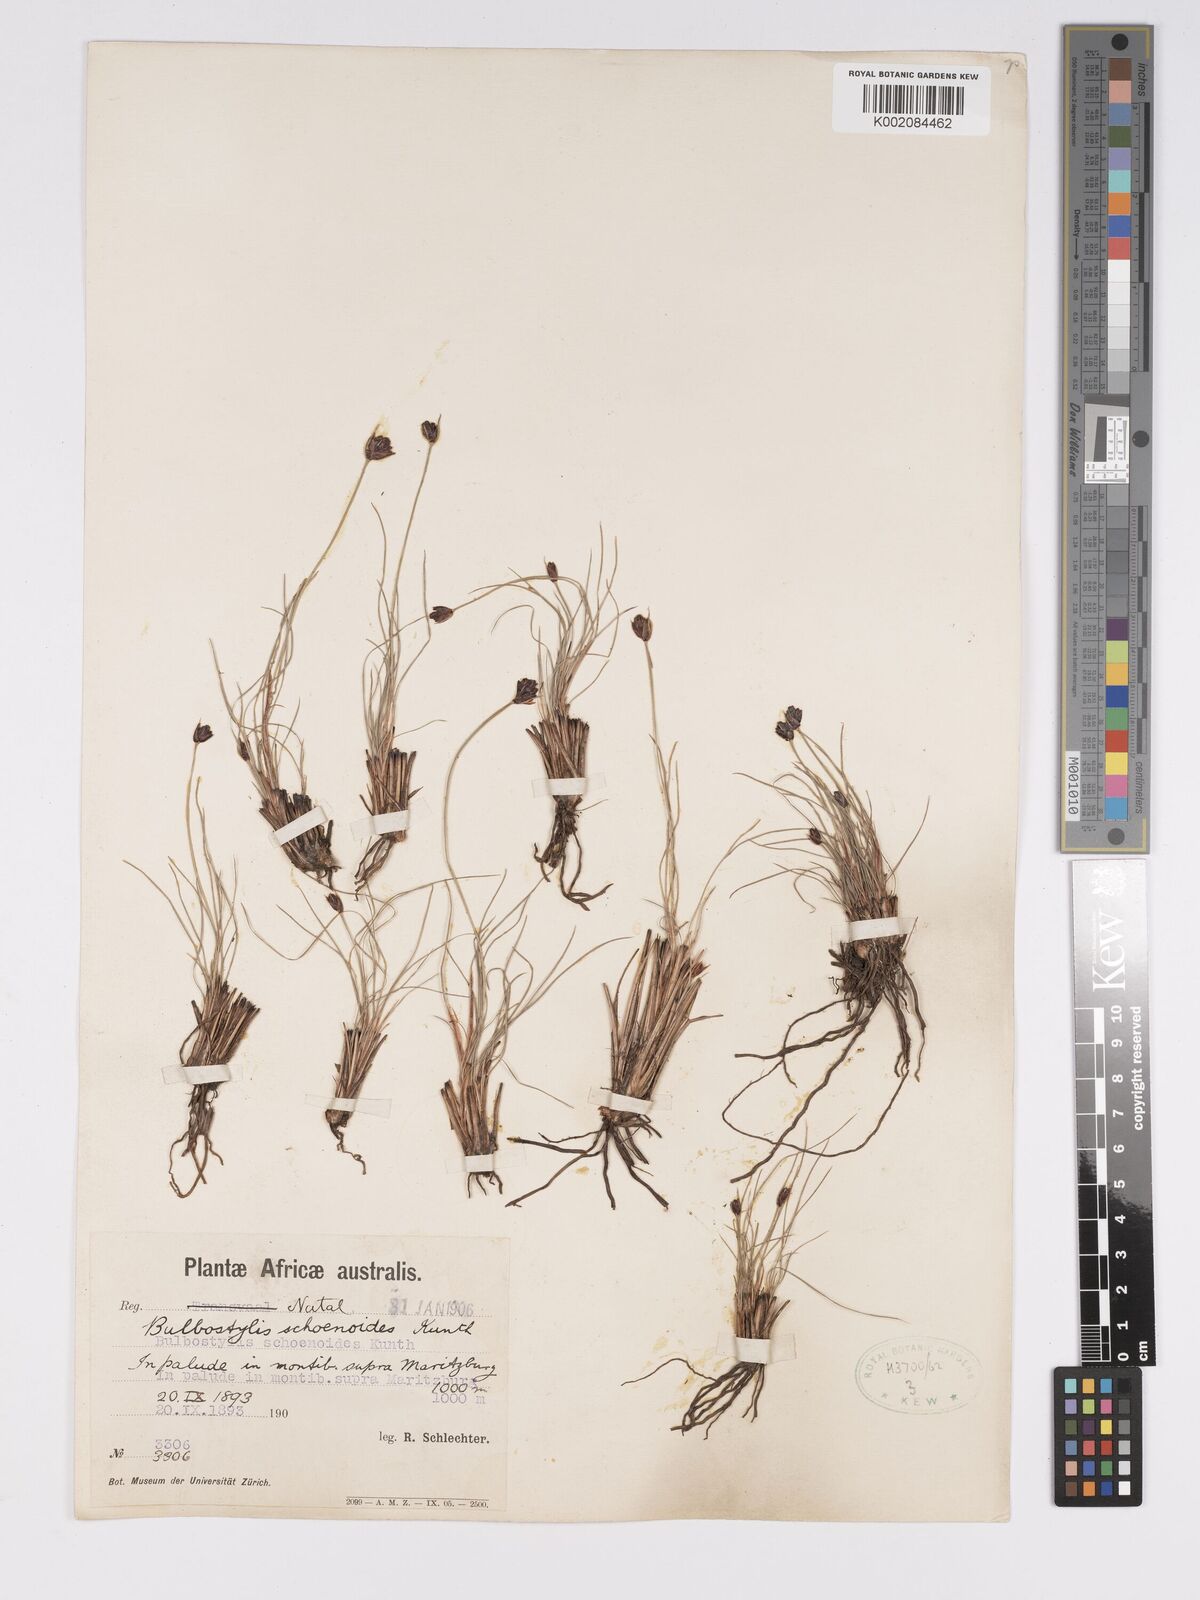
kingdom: Plantae
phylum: Tracheophyta
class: Liliopsida
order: Poales
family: Cyperaceae
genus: Bulbostylis
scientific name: Bulbostylis schoenoides
